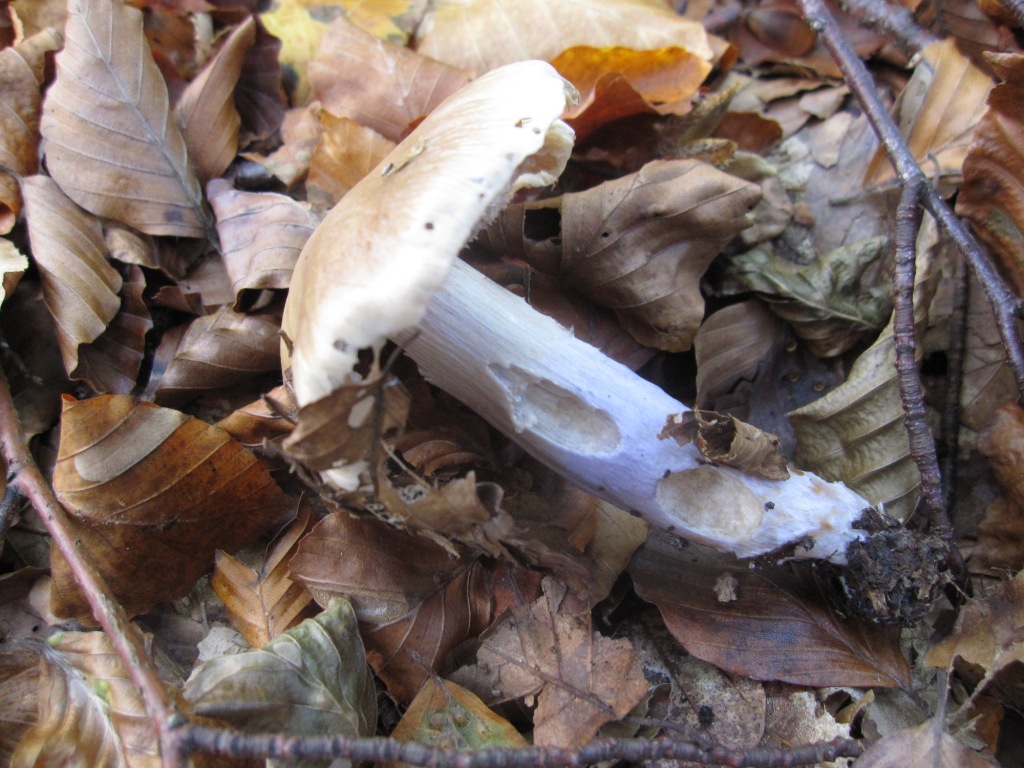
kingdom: Fungi
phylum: Basidiomycota
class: Agaricomycetes
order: Agaricales
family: Cortinariaceae
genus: Cortinarius
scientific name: Cortinarius elatior
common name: høj slørhat
